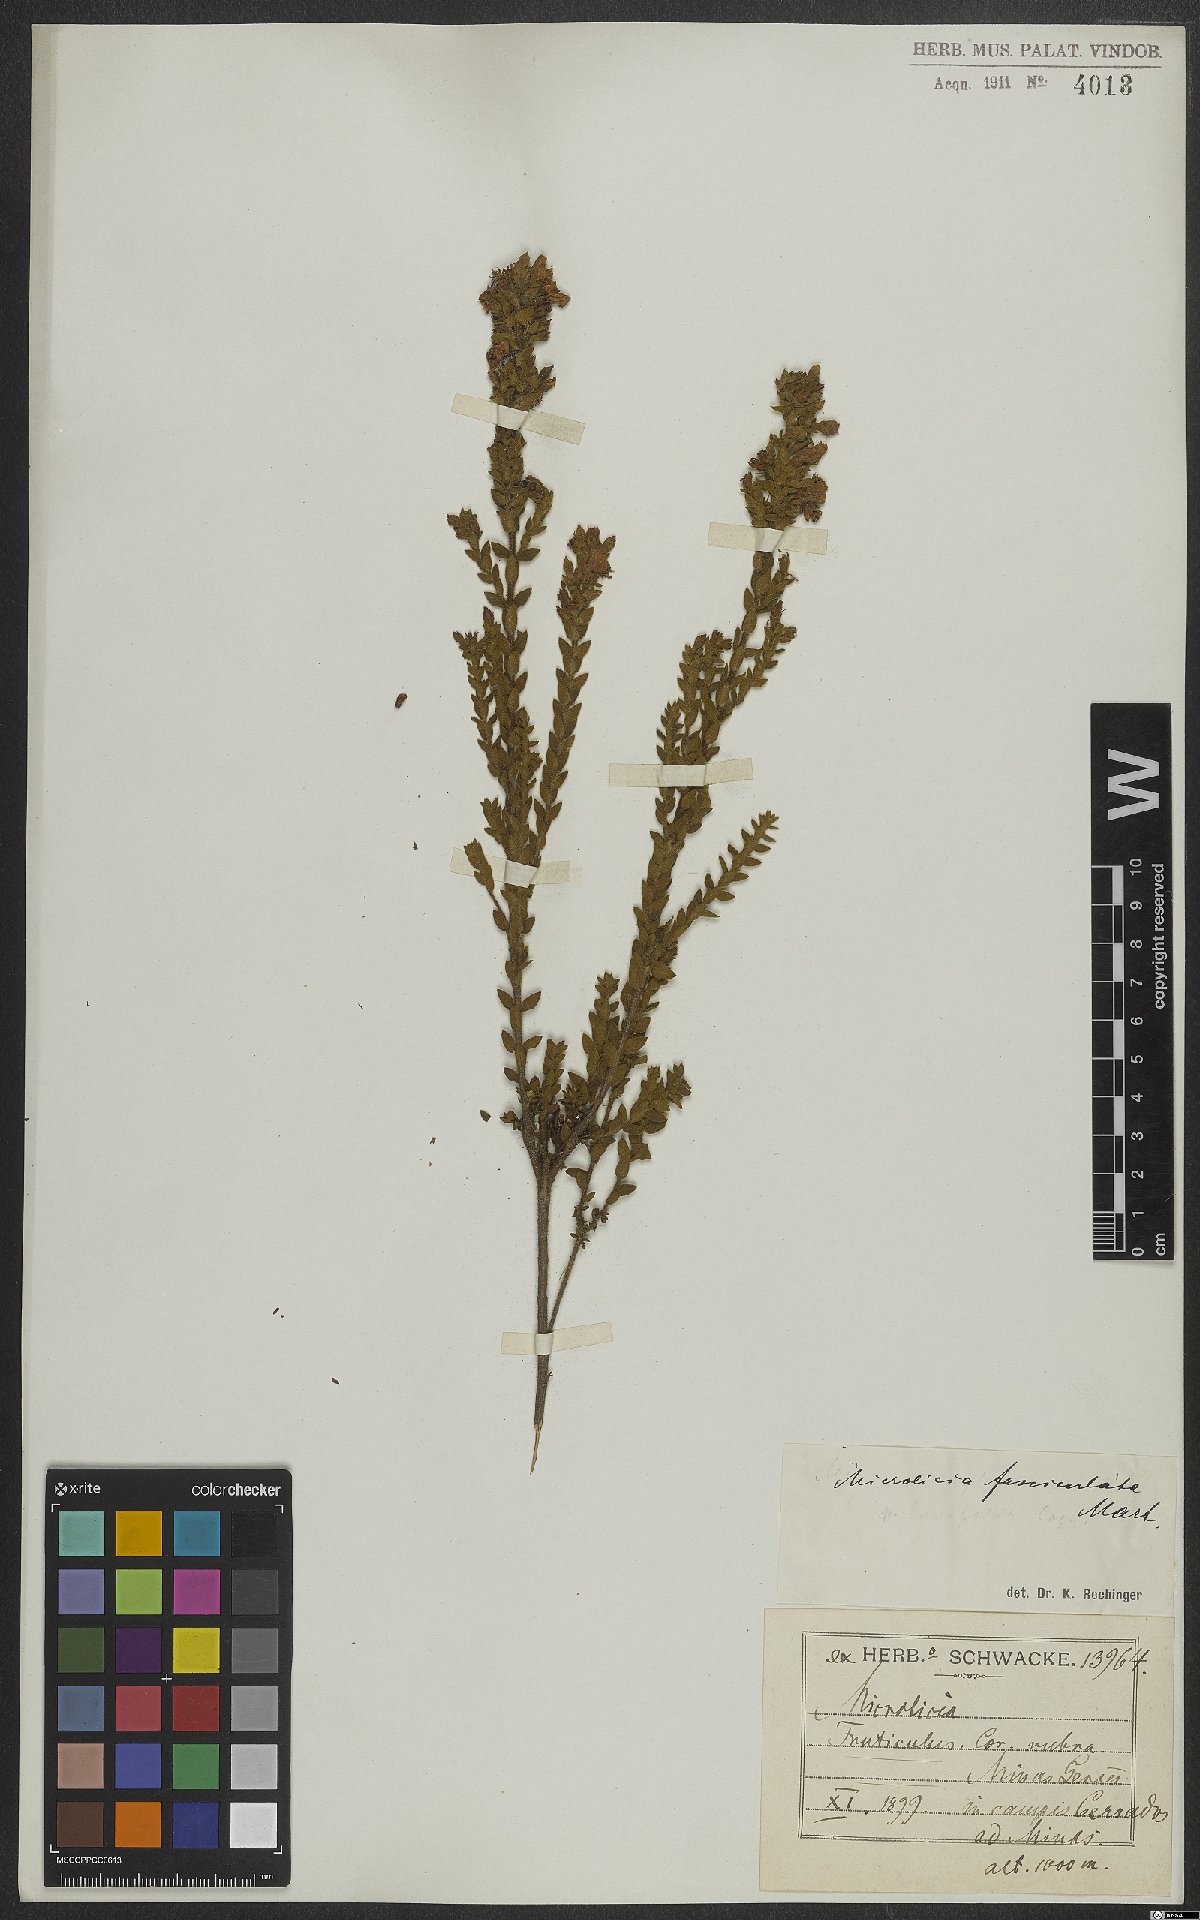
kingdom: Plantae
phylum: Tracheophyta
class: Magnoliopsida
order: Myrtales
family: Melastomataceae
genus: Microlicia
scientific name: Microlicia fasciculata
